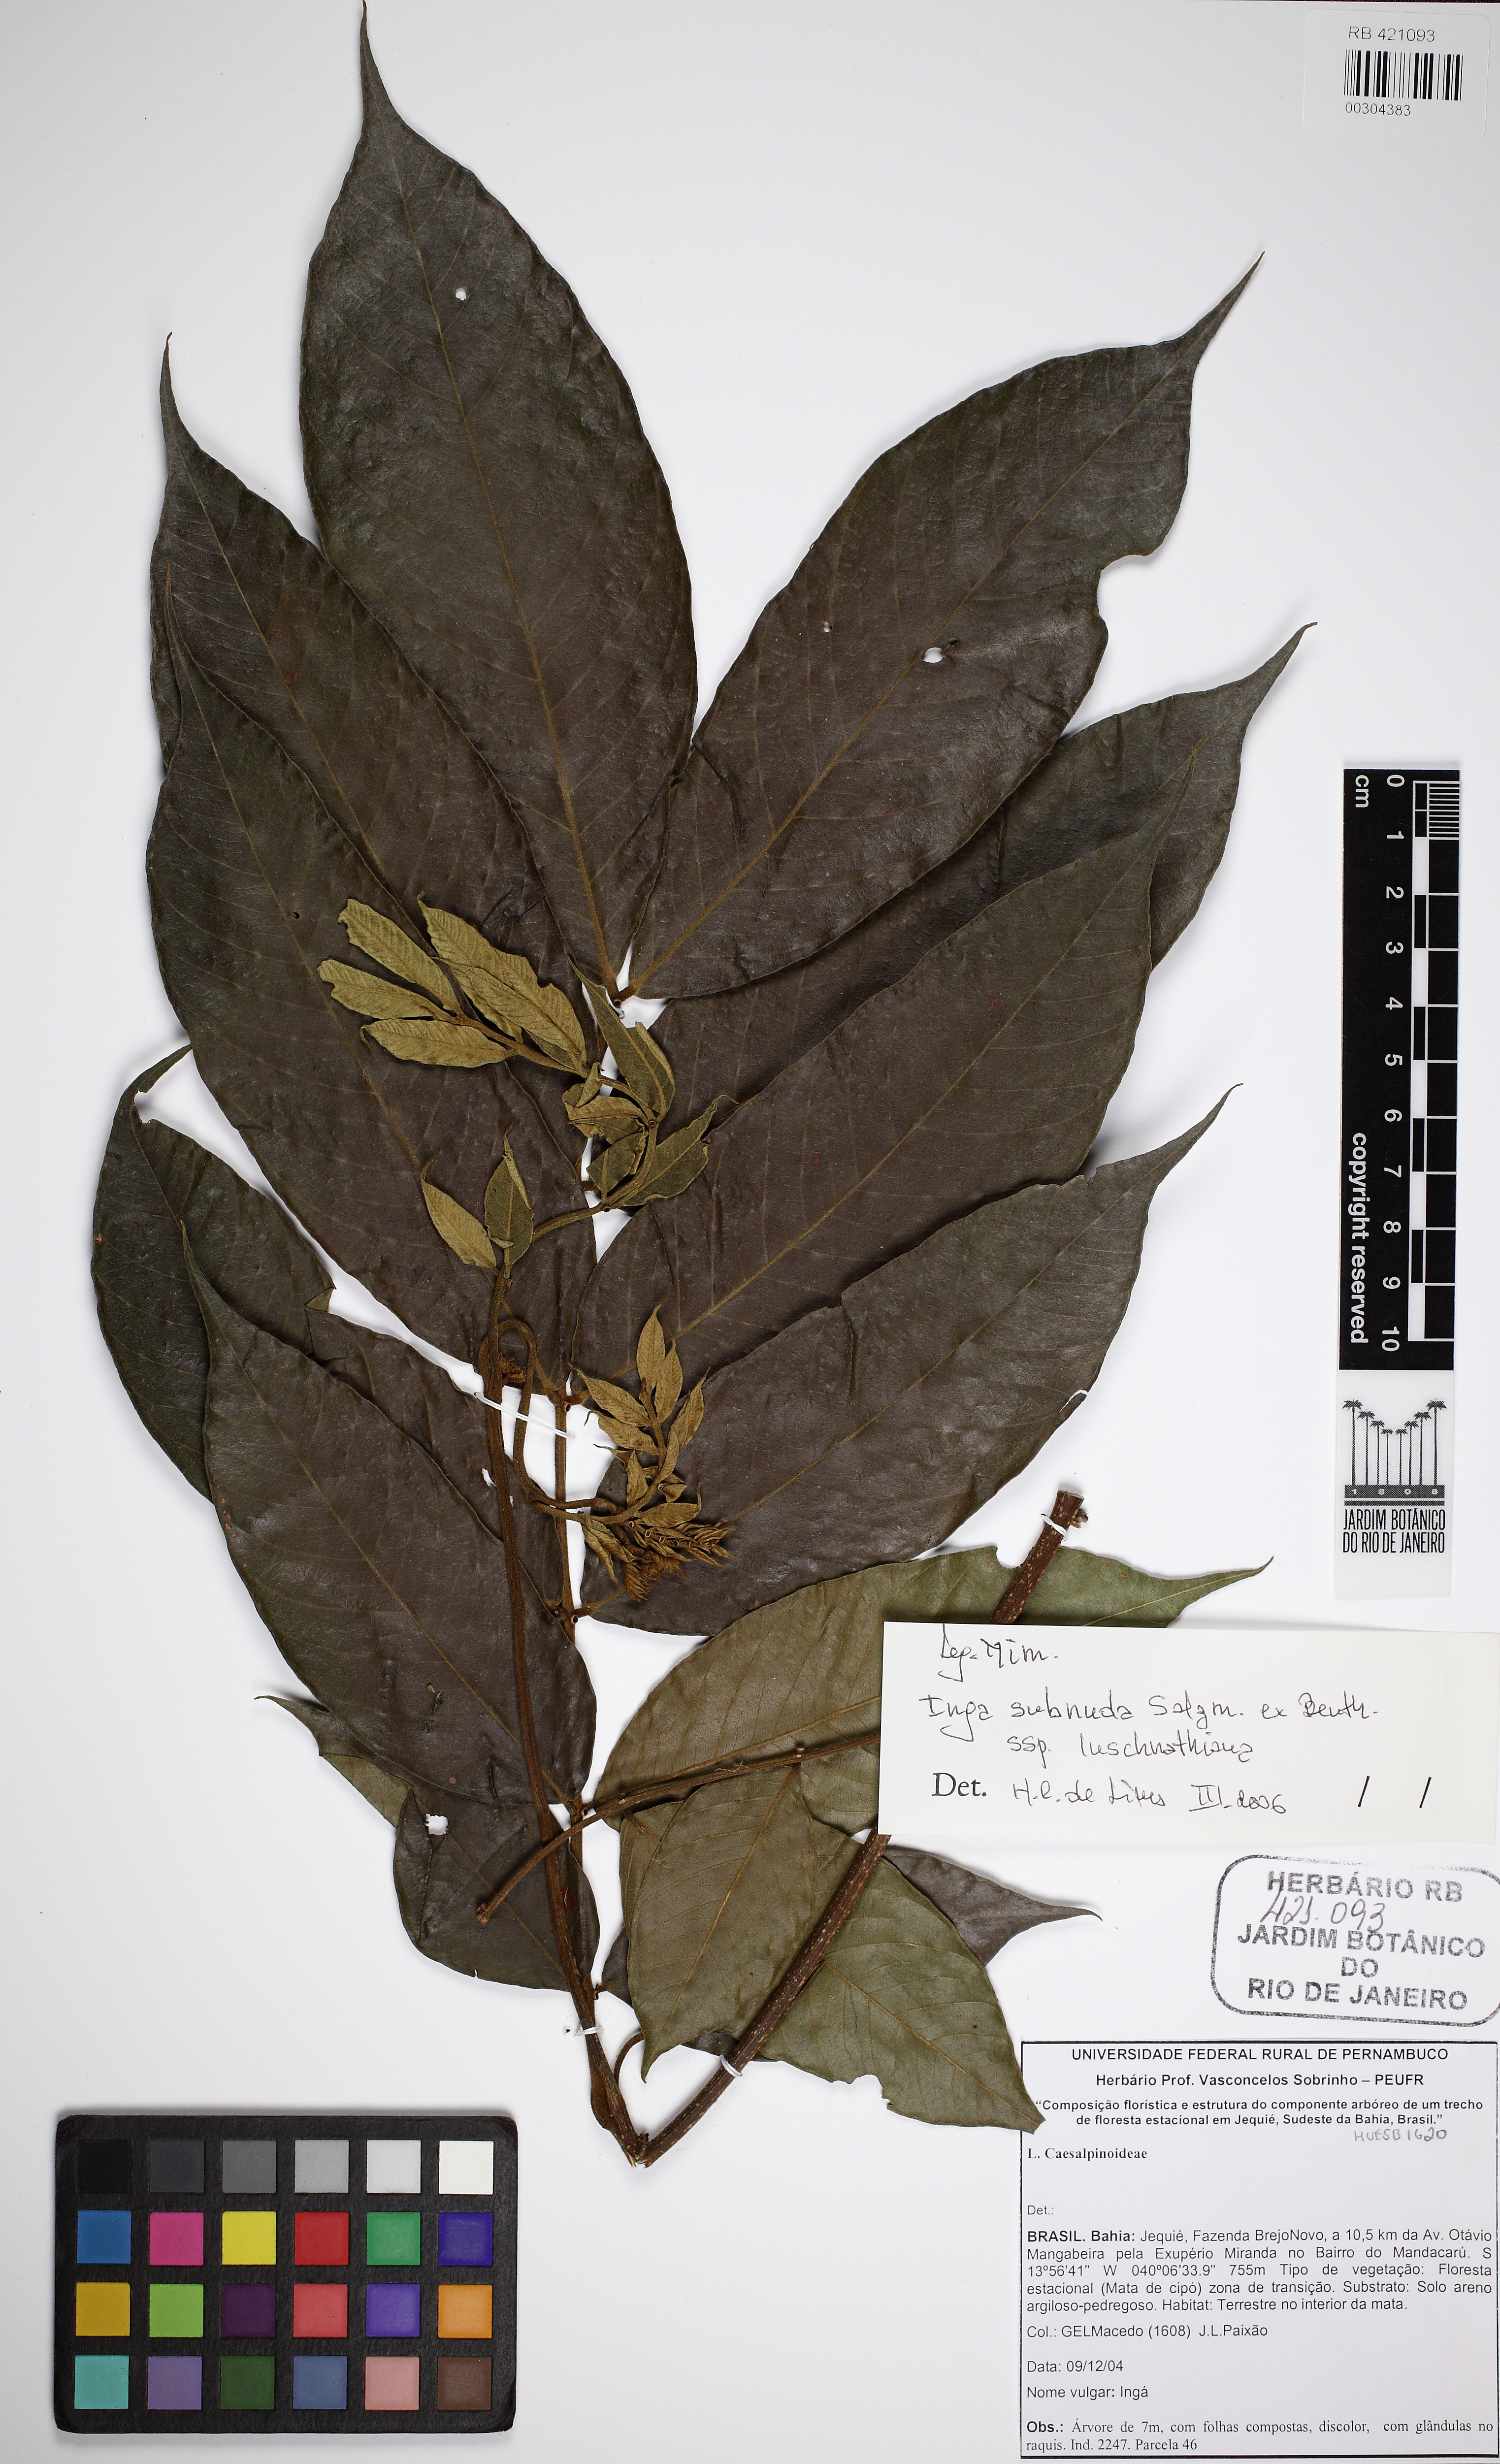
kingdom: Plantae
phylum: Tracheophyta
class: Magnoliopsida
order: Fabales
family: Fabaceae
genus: Inga
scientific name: Inga subnuda
